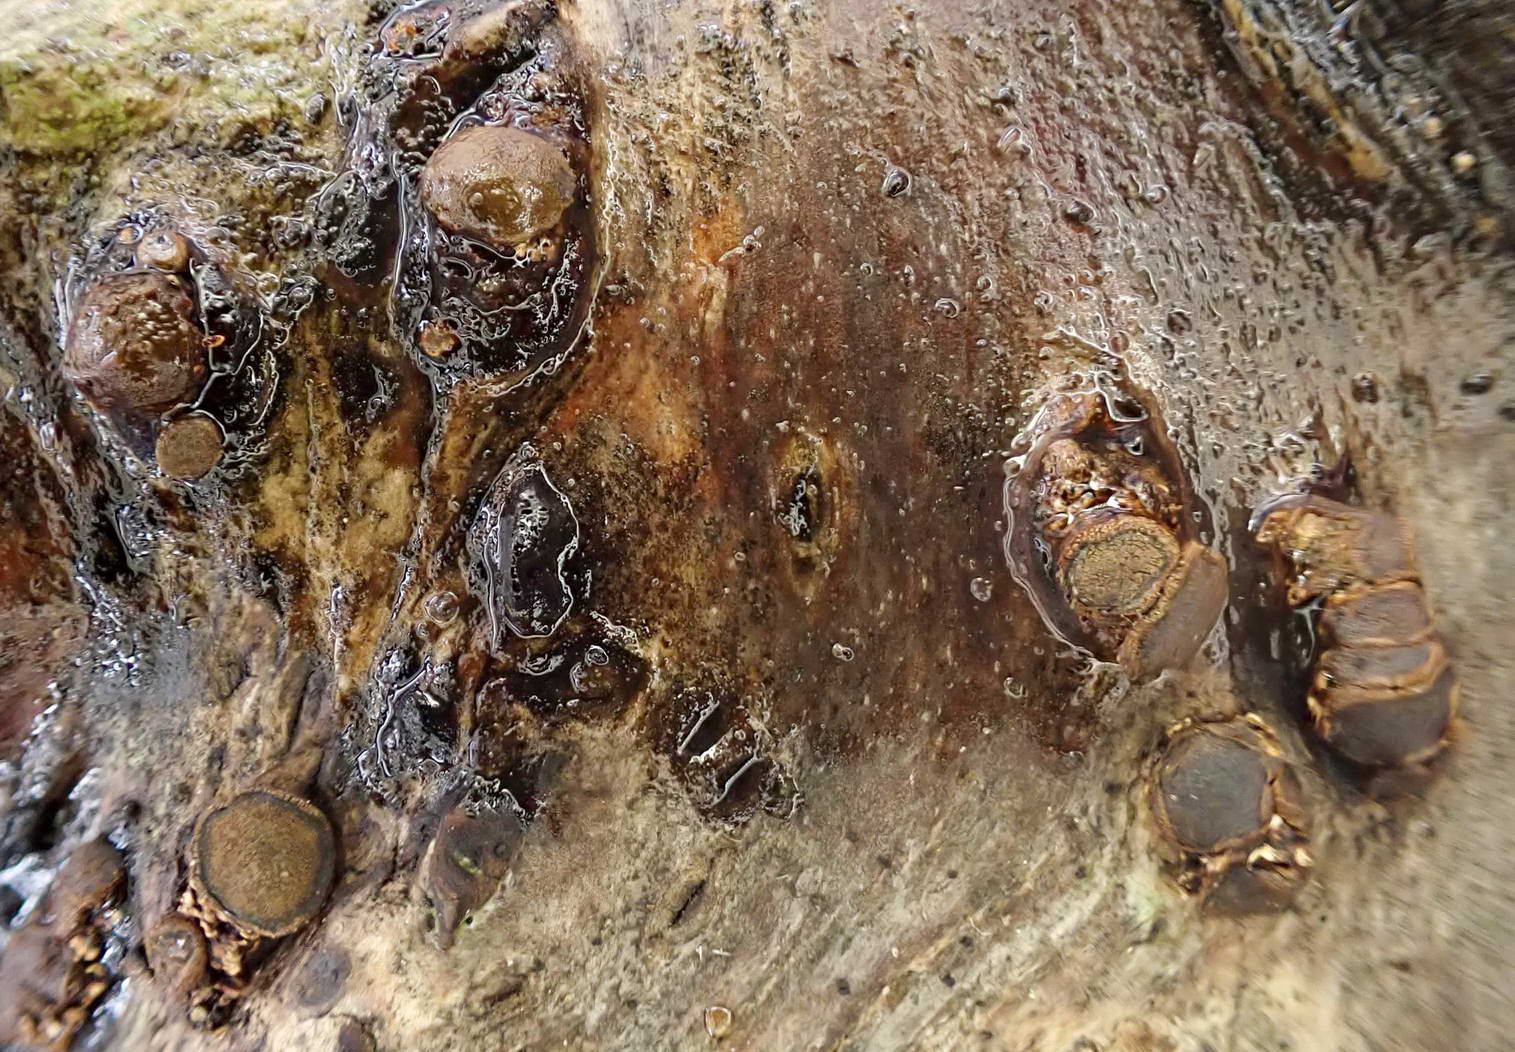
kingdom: Fungi
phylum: Ascomycota
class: Leotiomycetes
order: Helotiales
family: Dermateaceae
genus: Dermea
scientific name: Dermea cerasi
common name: kirsebær-klyngeskive
